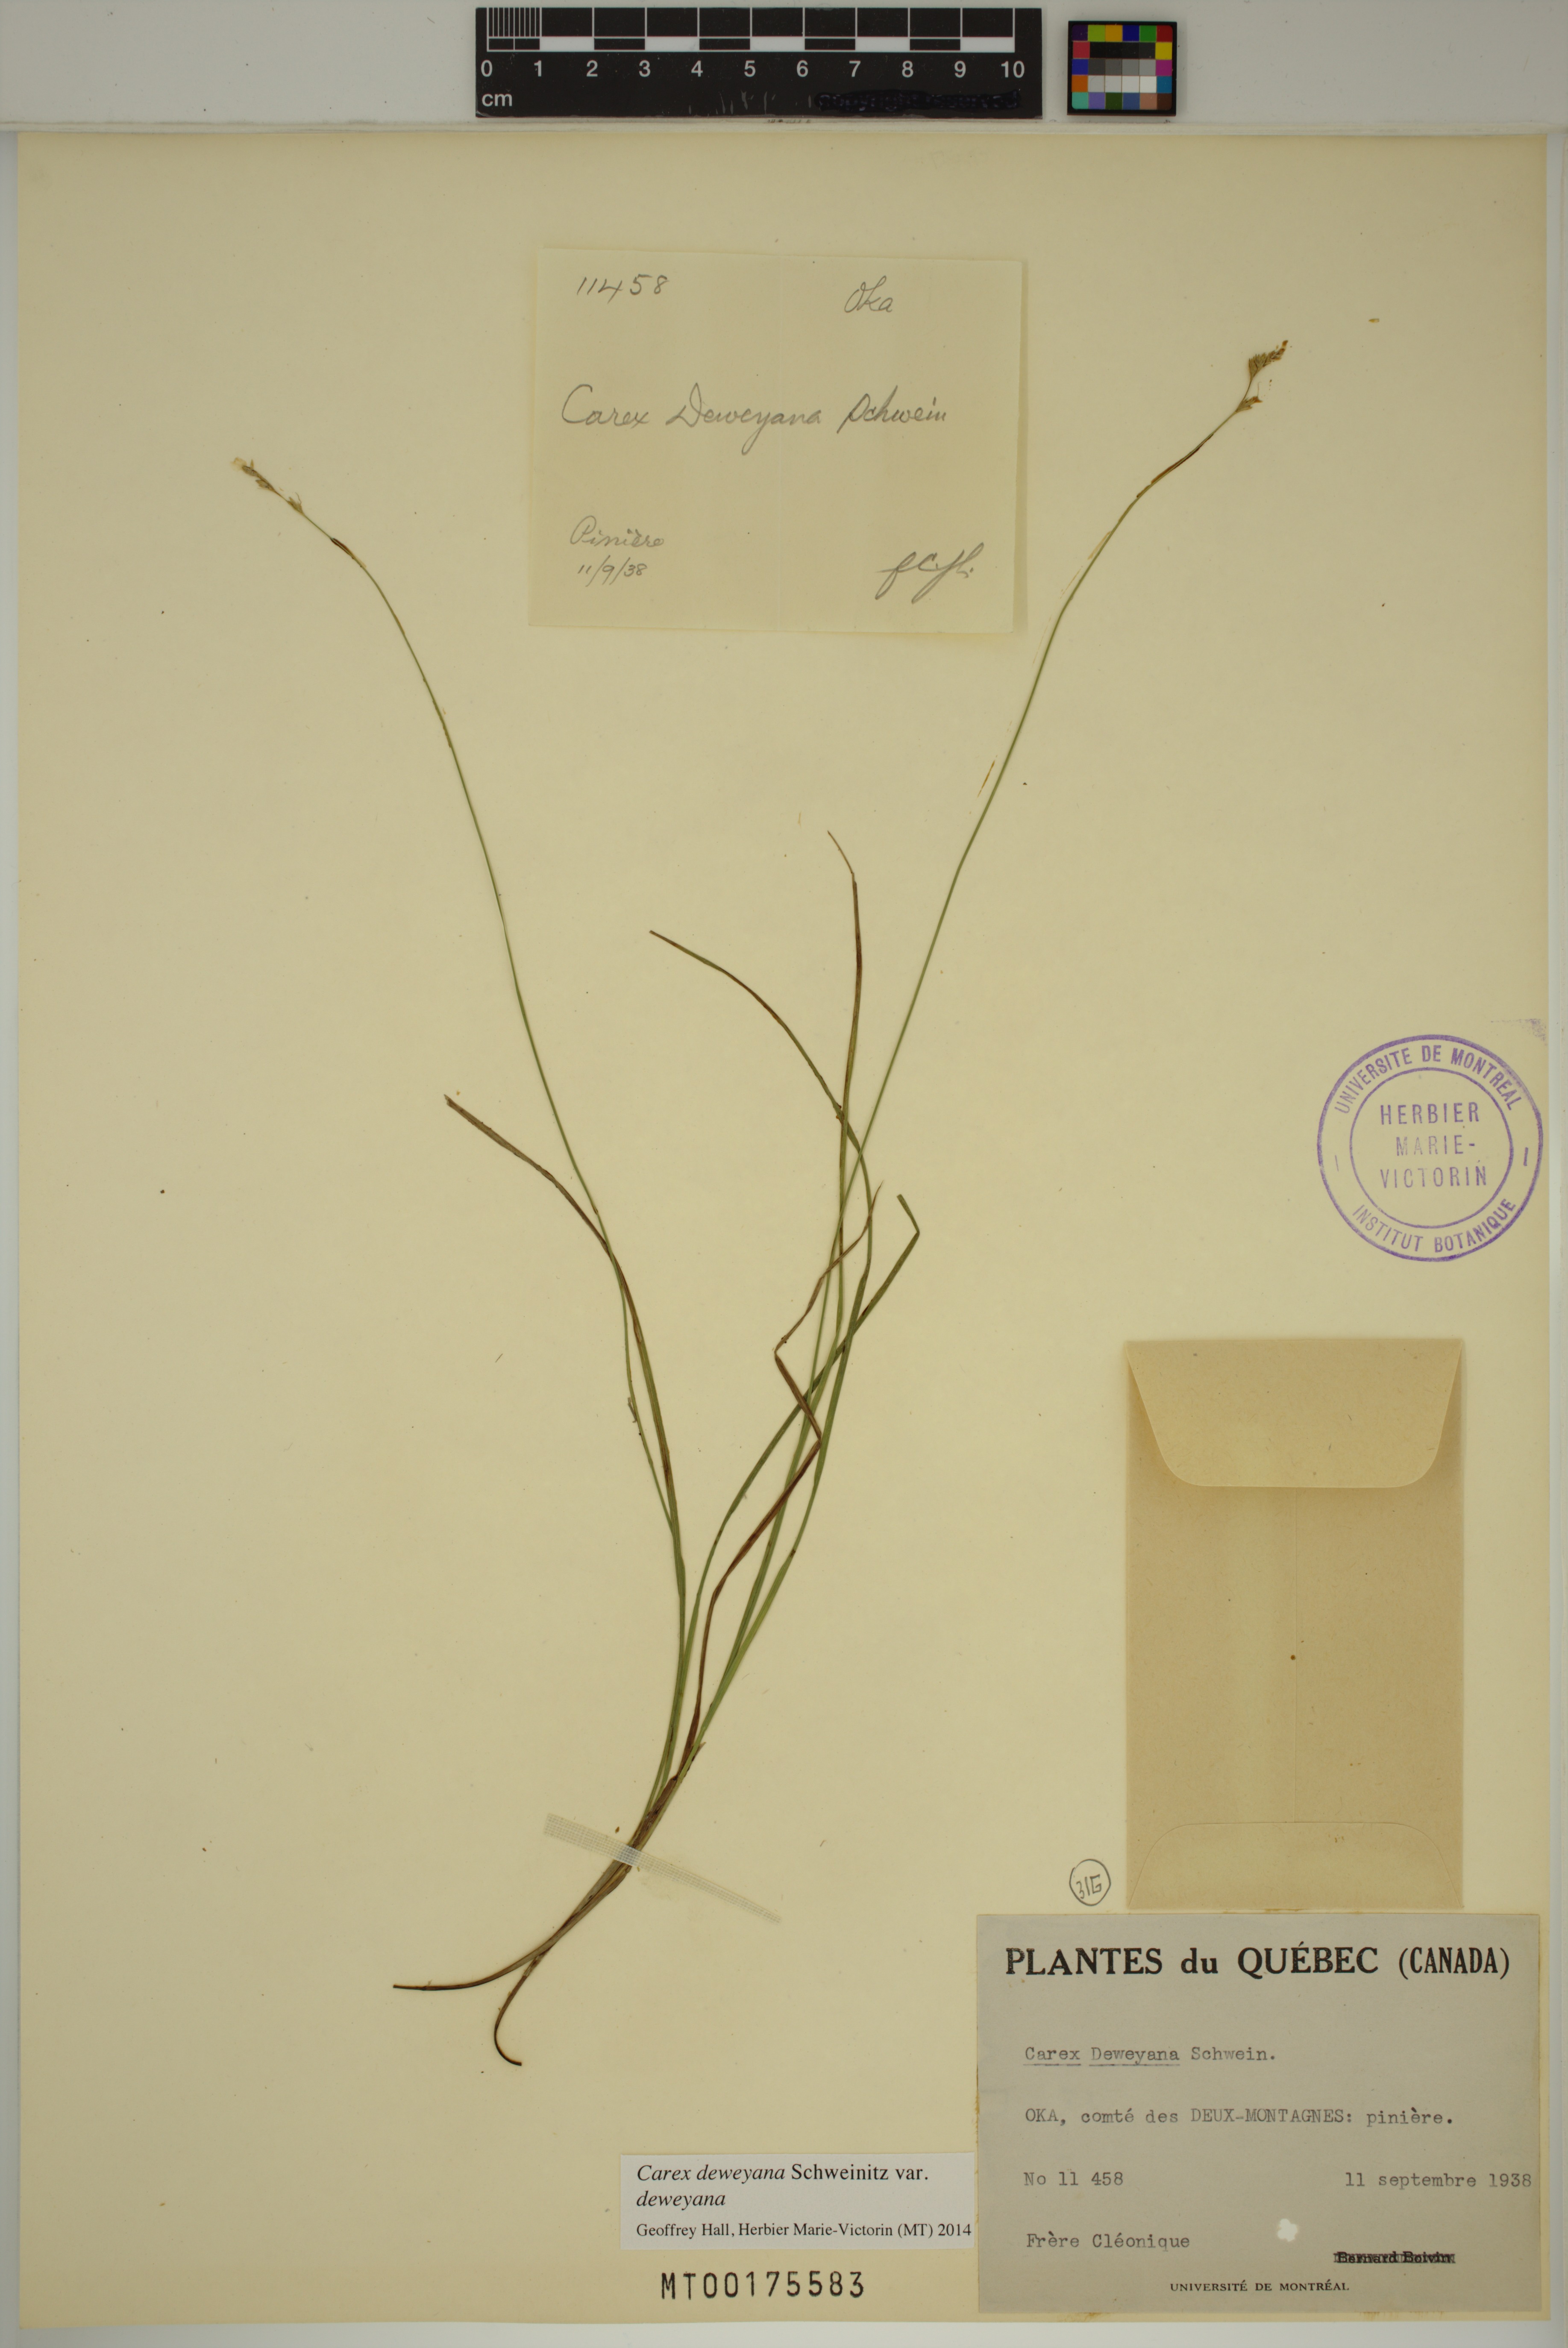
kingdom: Plantae
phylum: Tracheophyta
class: Liliopsida
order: Poales
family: Cyperaceae
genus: Carex
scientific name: Carex deweyana
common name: Dewey's sedge
